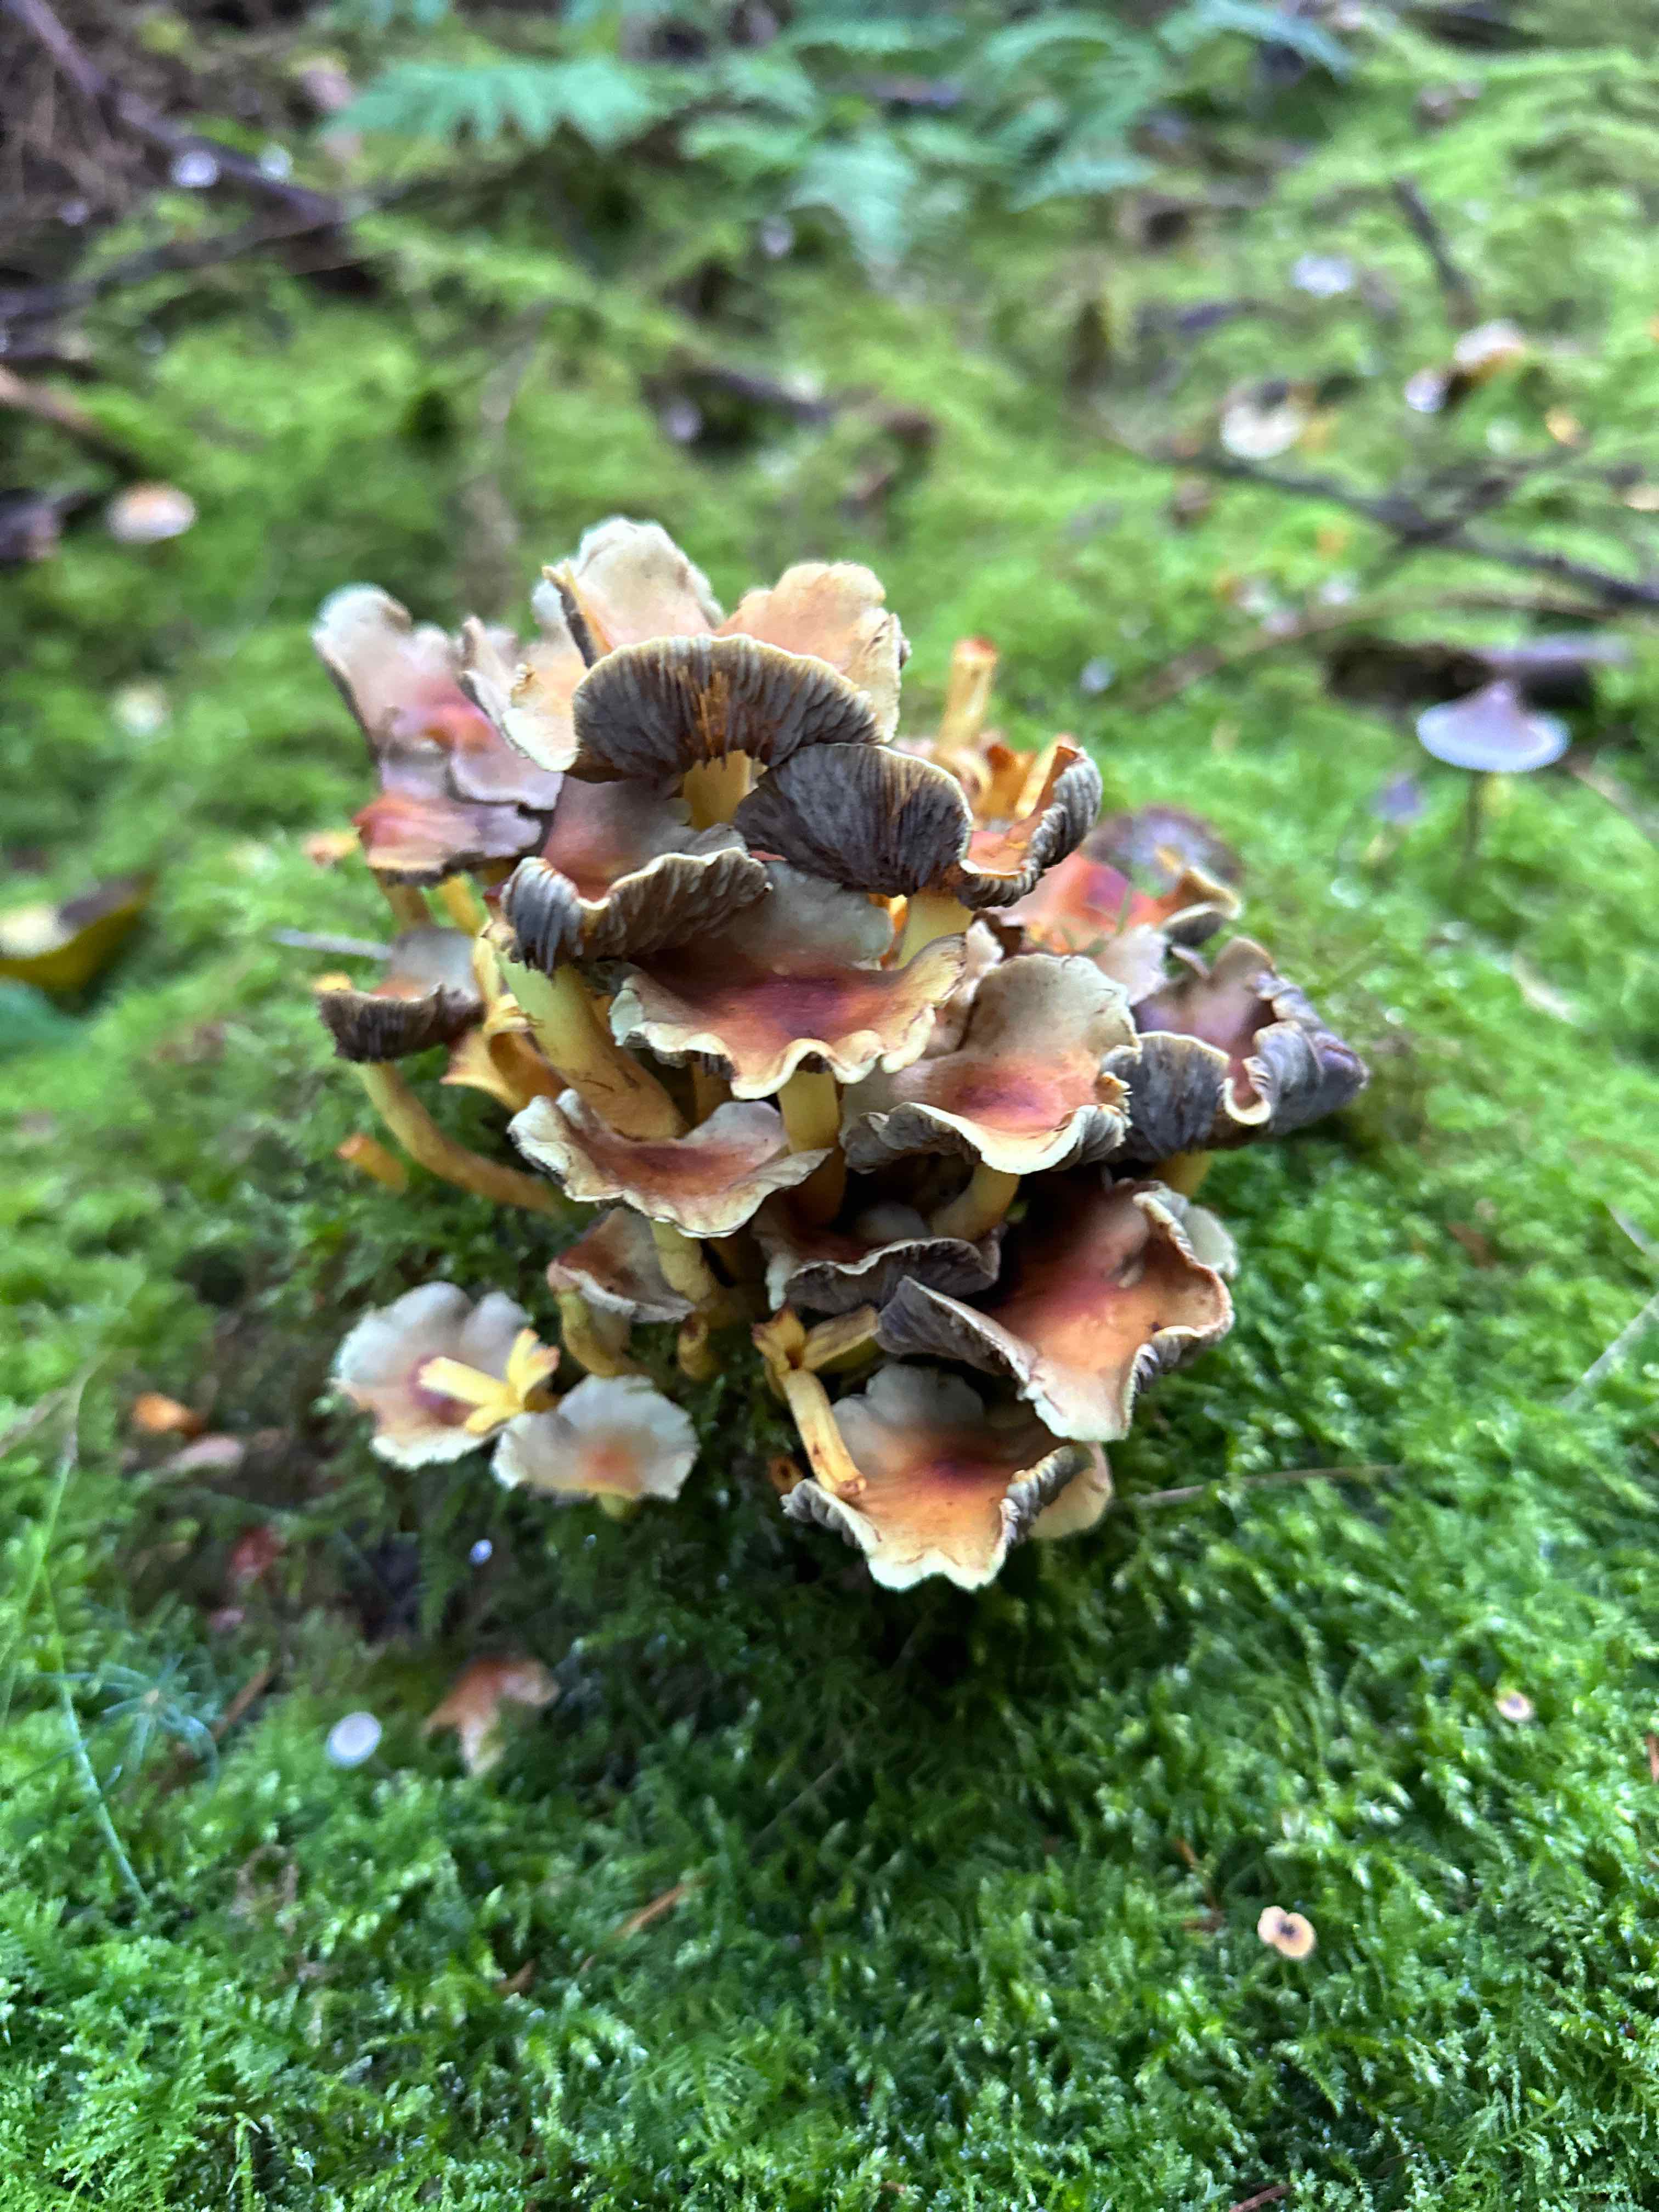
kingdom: Fungi
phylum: Basidiomycota
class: Agaricomycetes
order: Agaricales
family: Strophariaceae
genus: Hypholoma
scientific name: Hypholoma fasciculare
